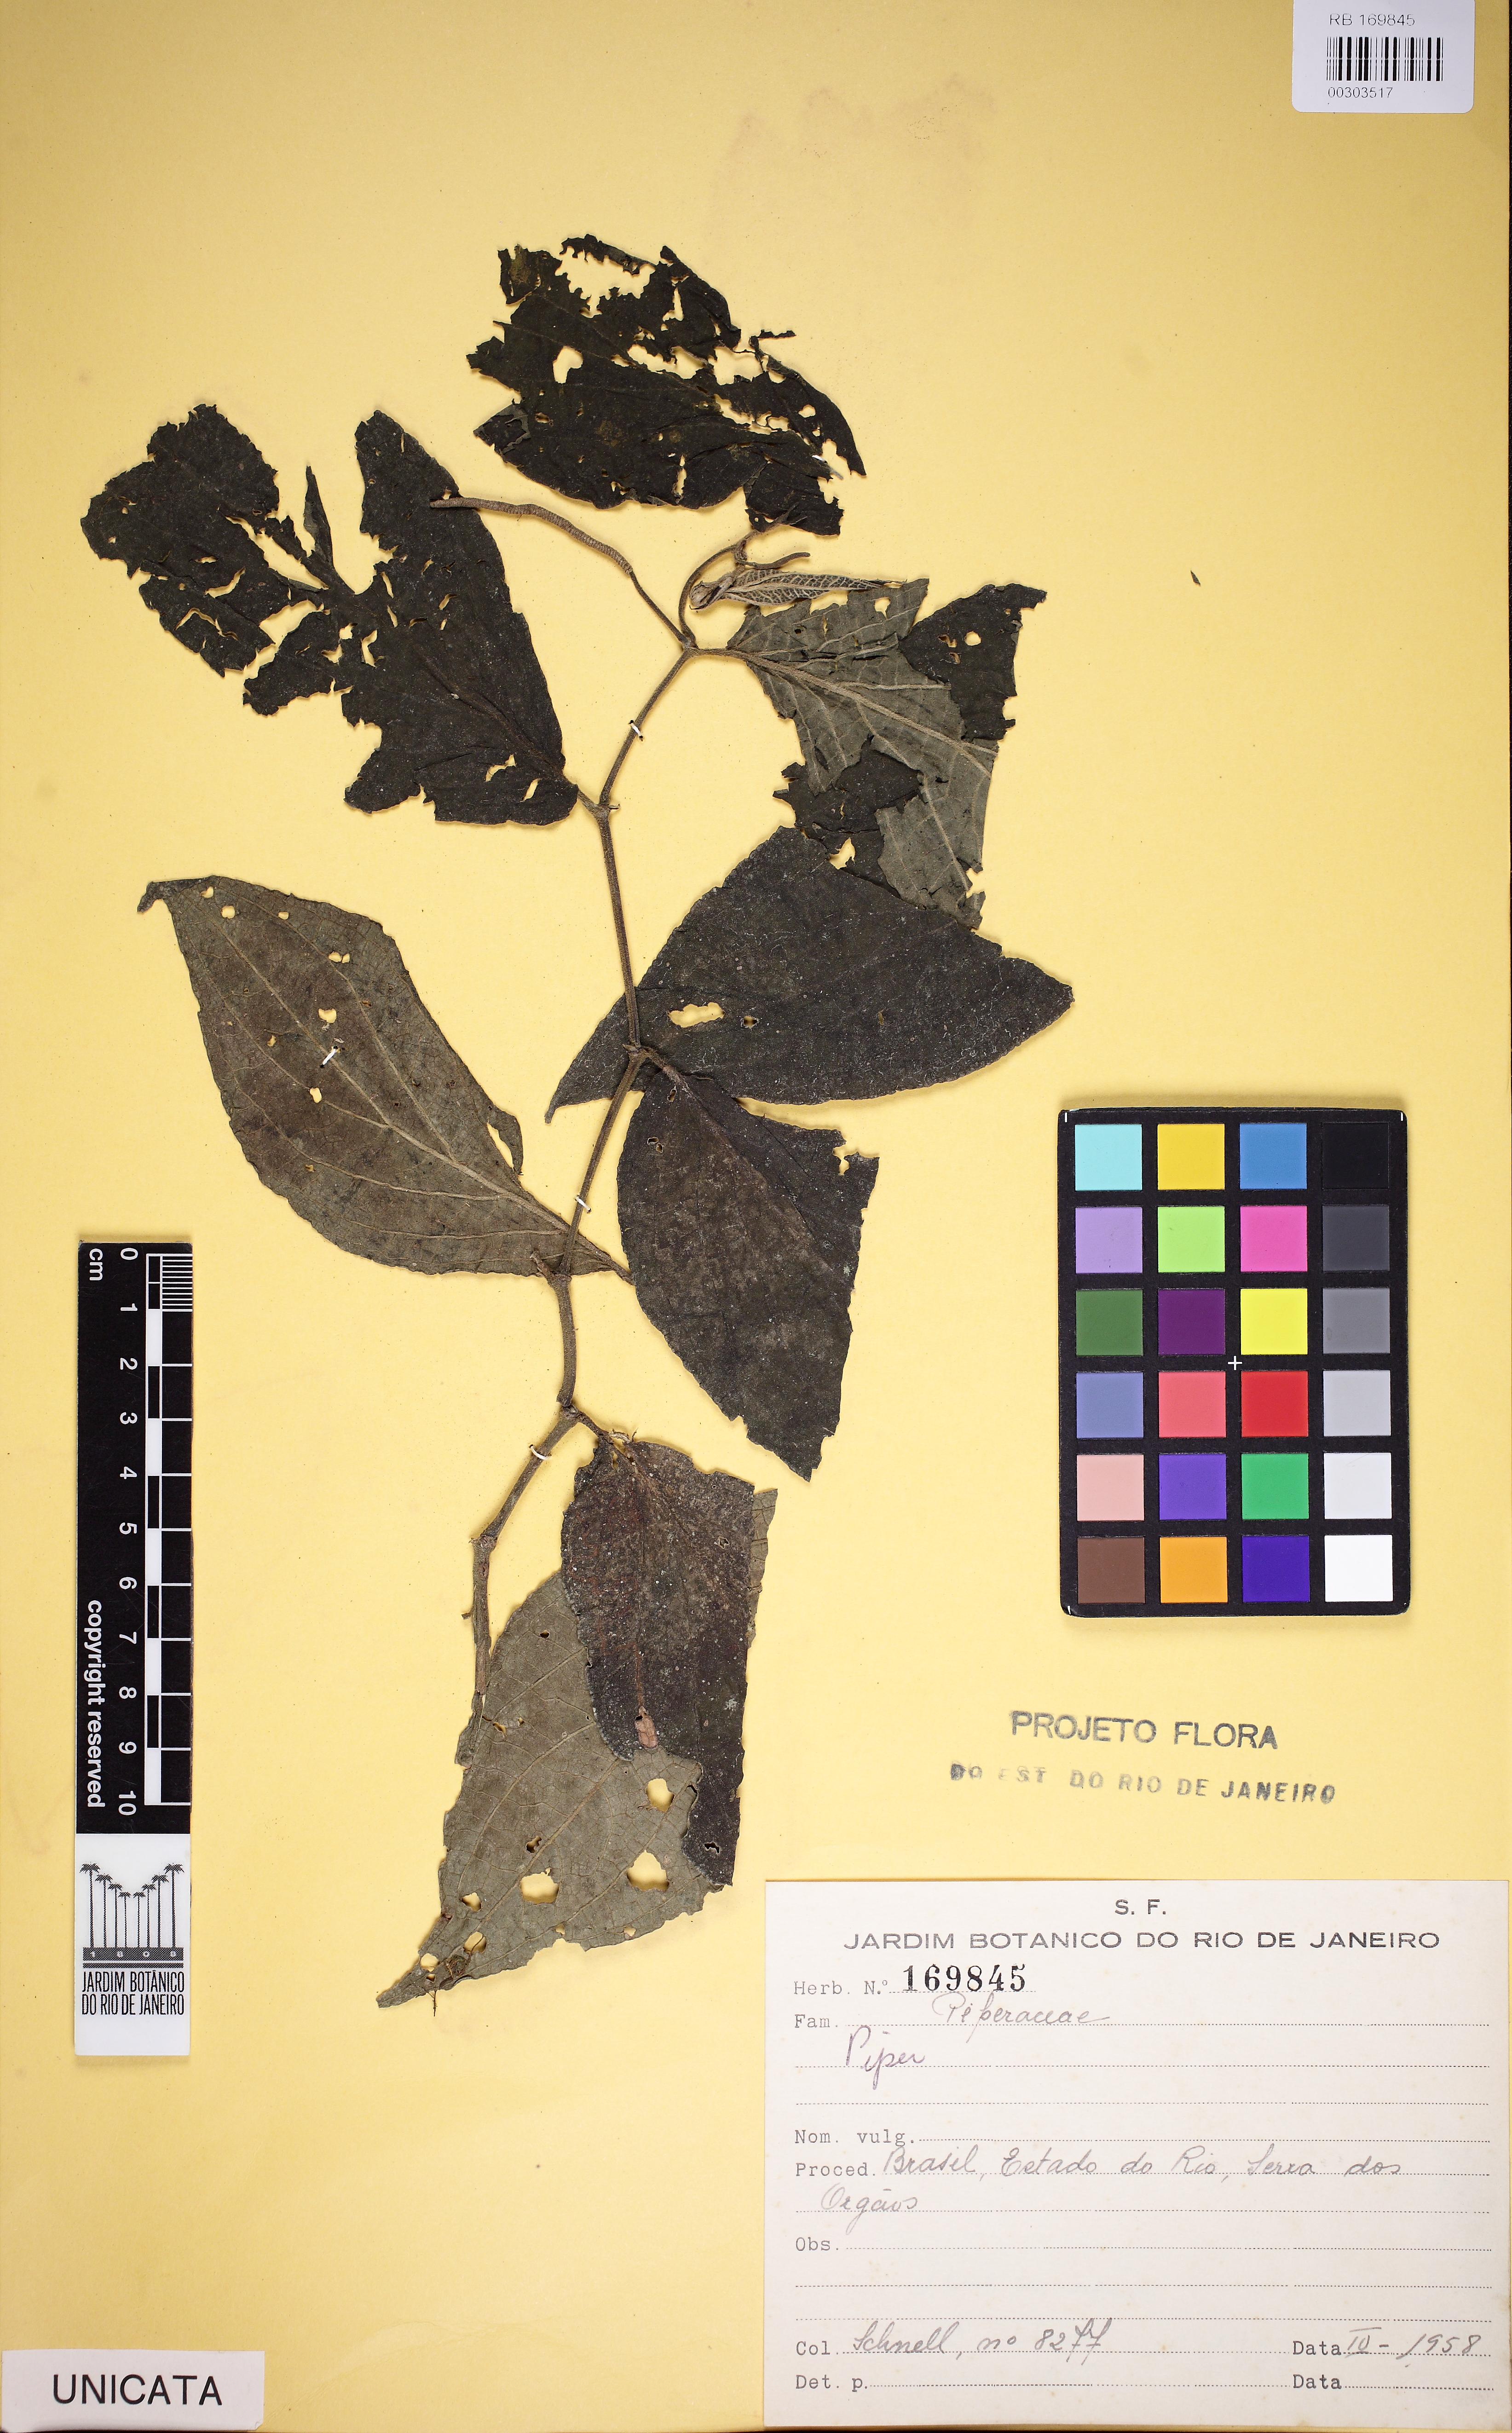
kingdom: Plantae
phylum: Tracheophyta
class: Magnoliopsida
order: Piperales
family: Piperaceae
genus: Peperomia
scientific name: Peperomia
